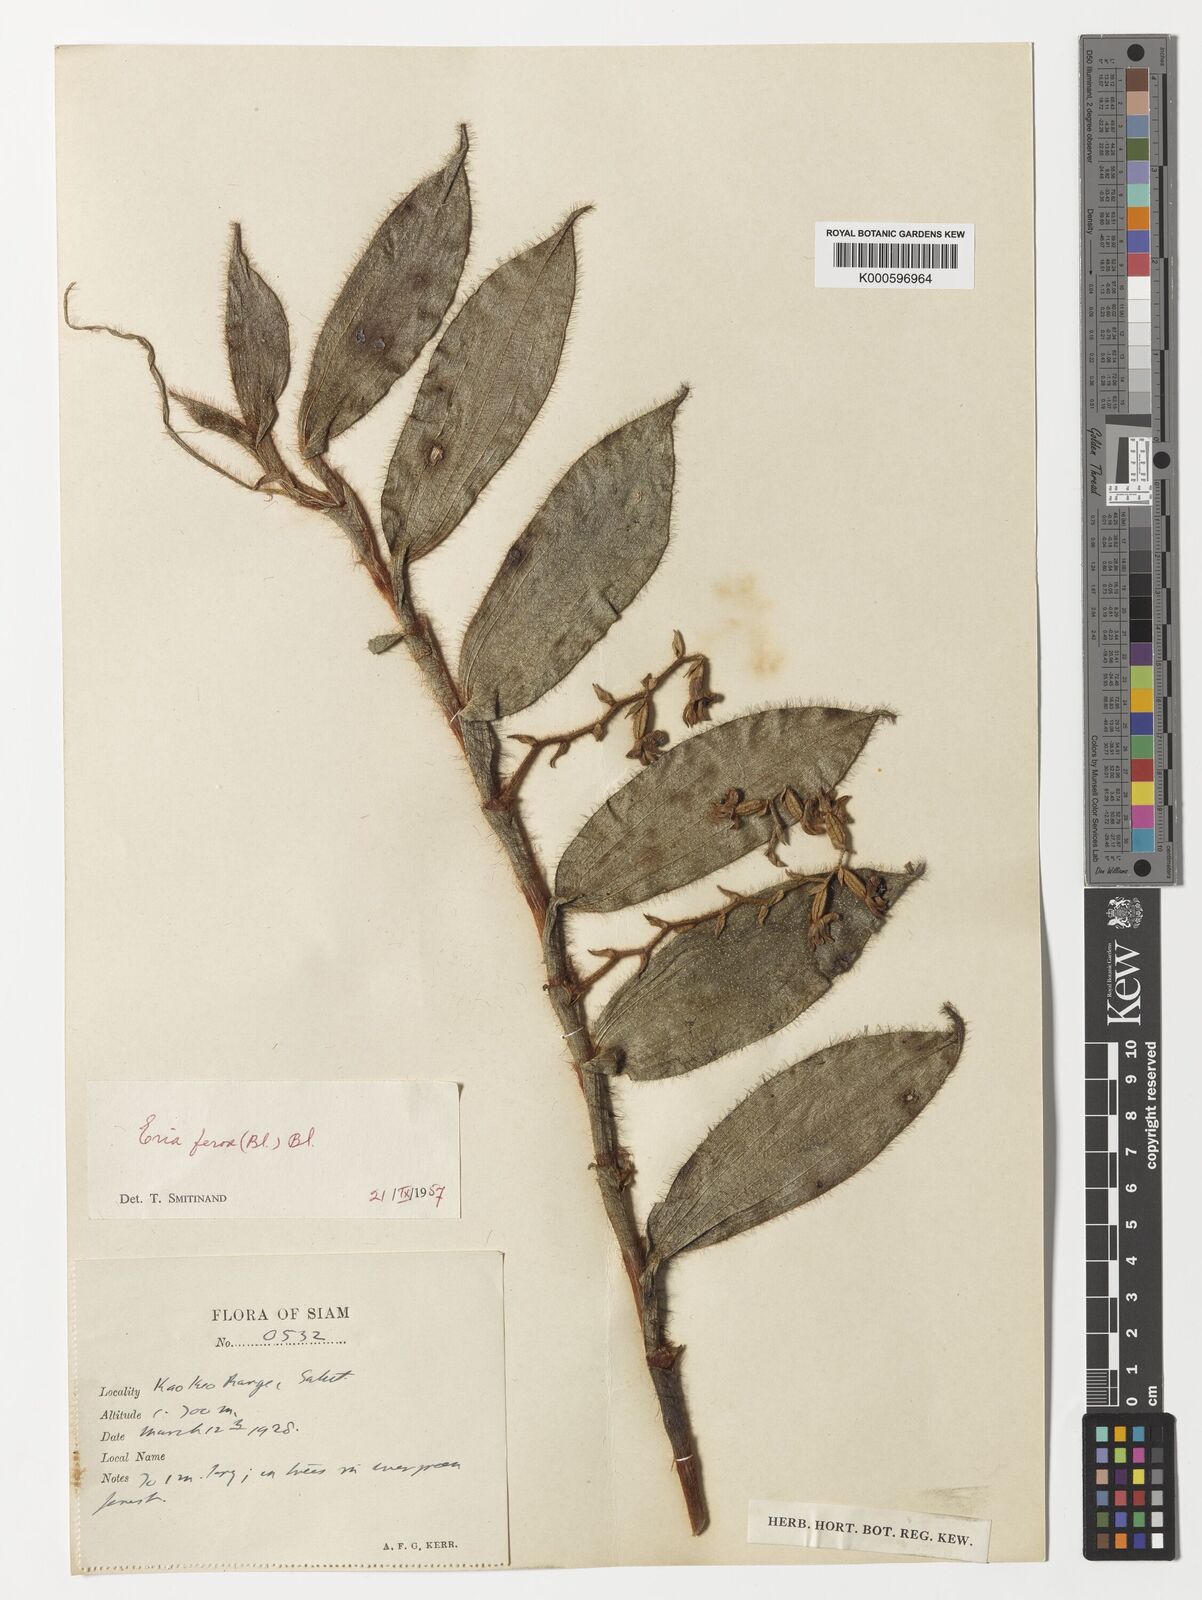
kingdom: Plantae
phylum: Tracheophyta
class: Liliopsida
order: Asparagales
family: Orchidaceae
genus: Trichotosia
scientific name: Trichotosia ferox
